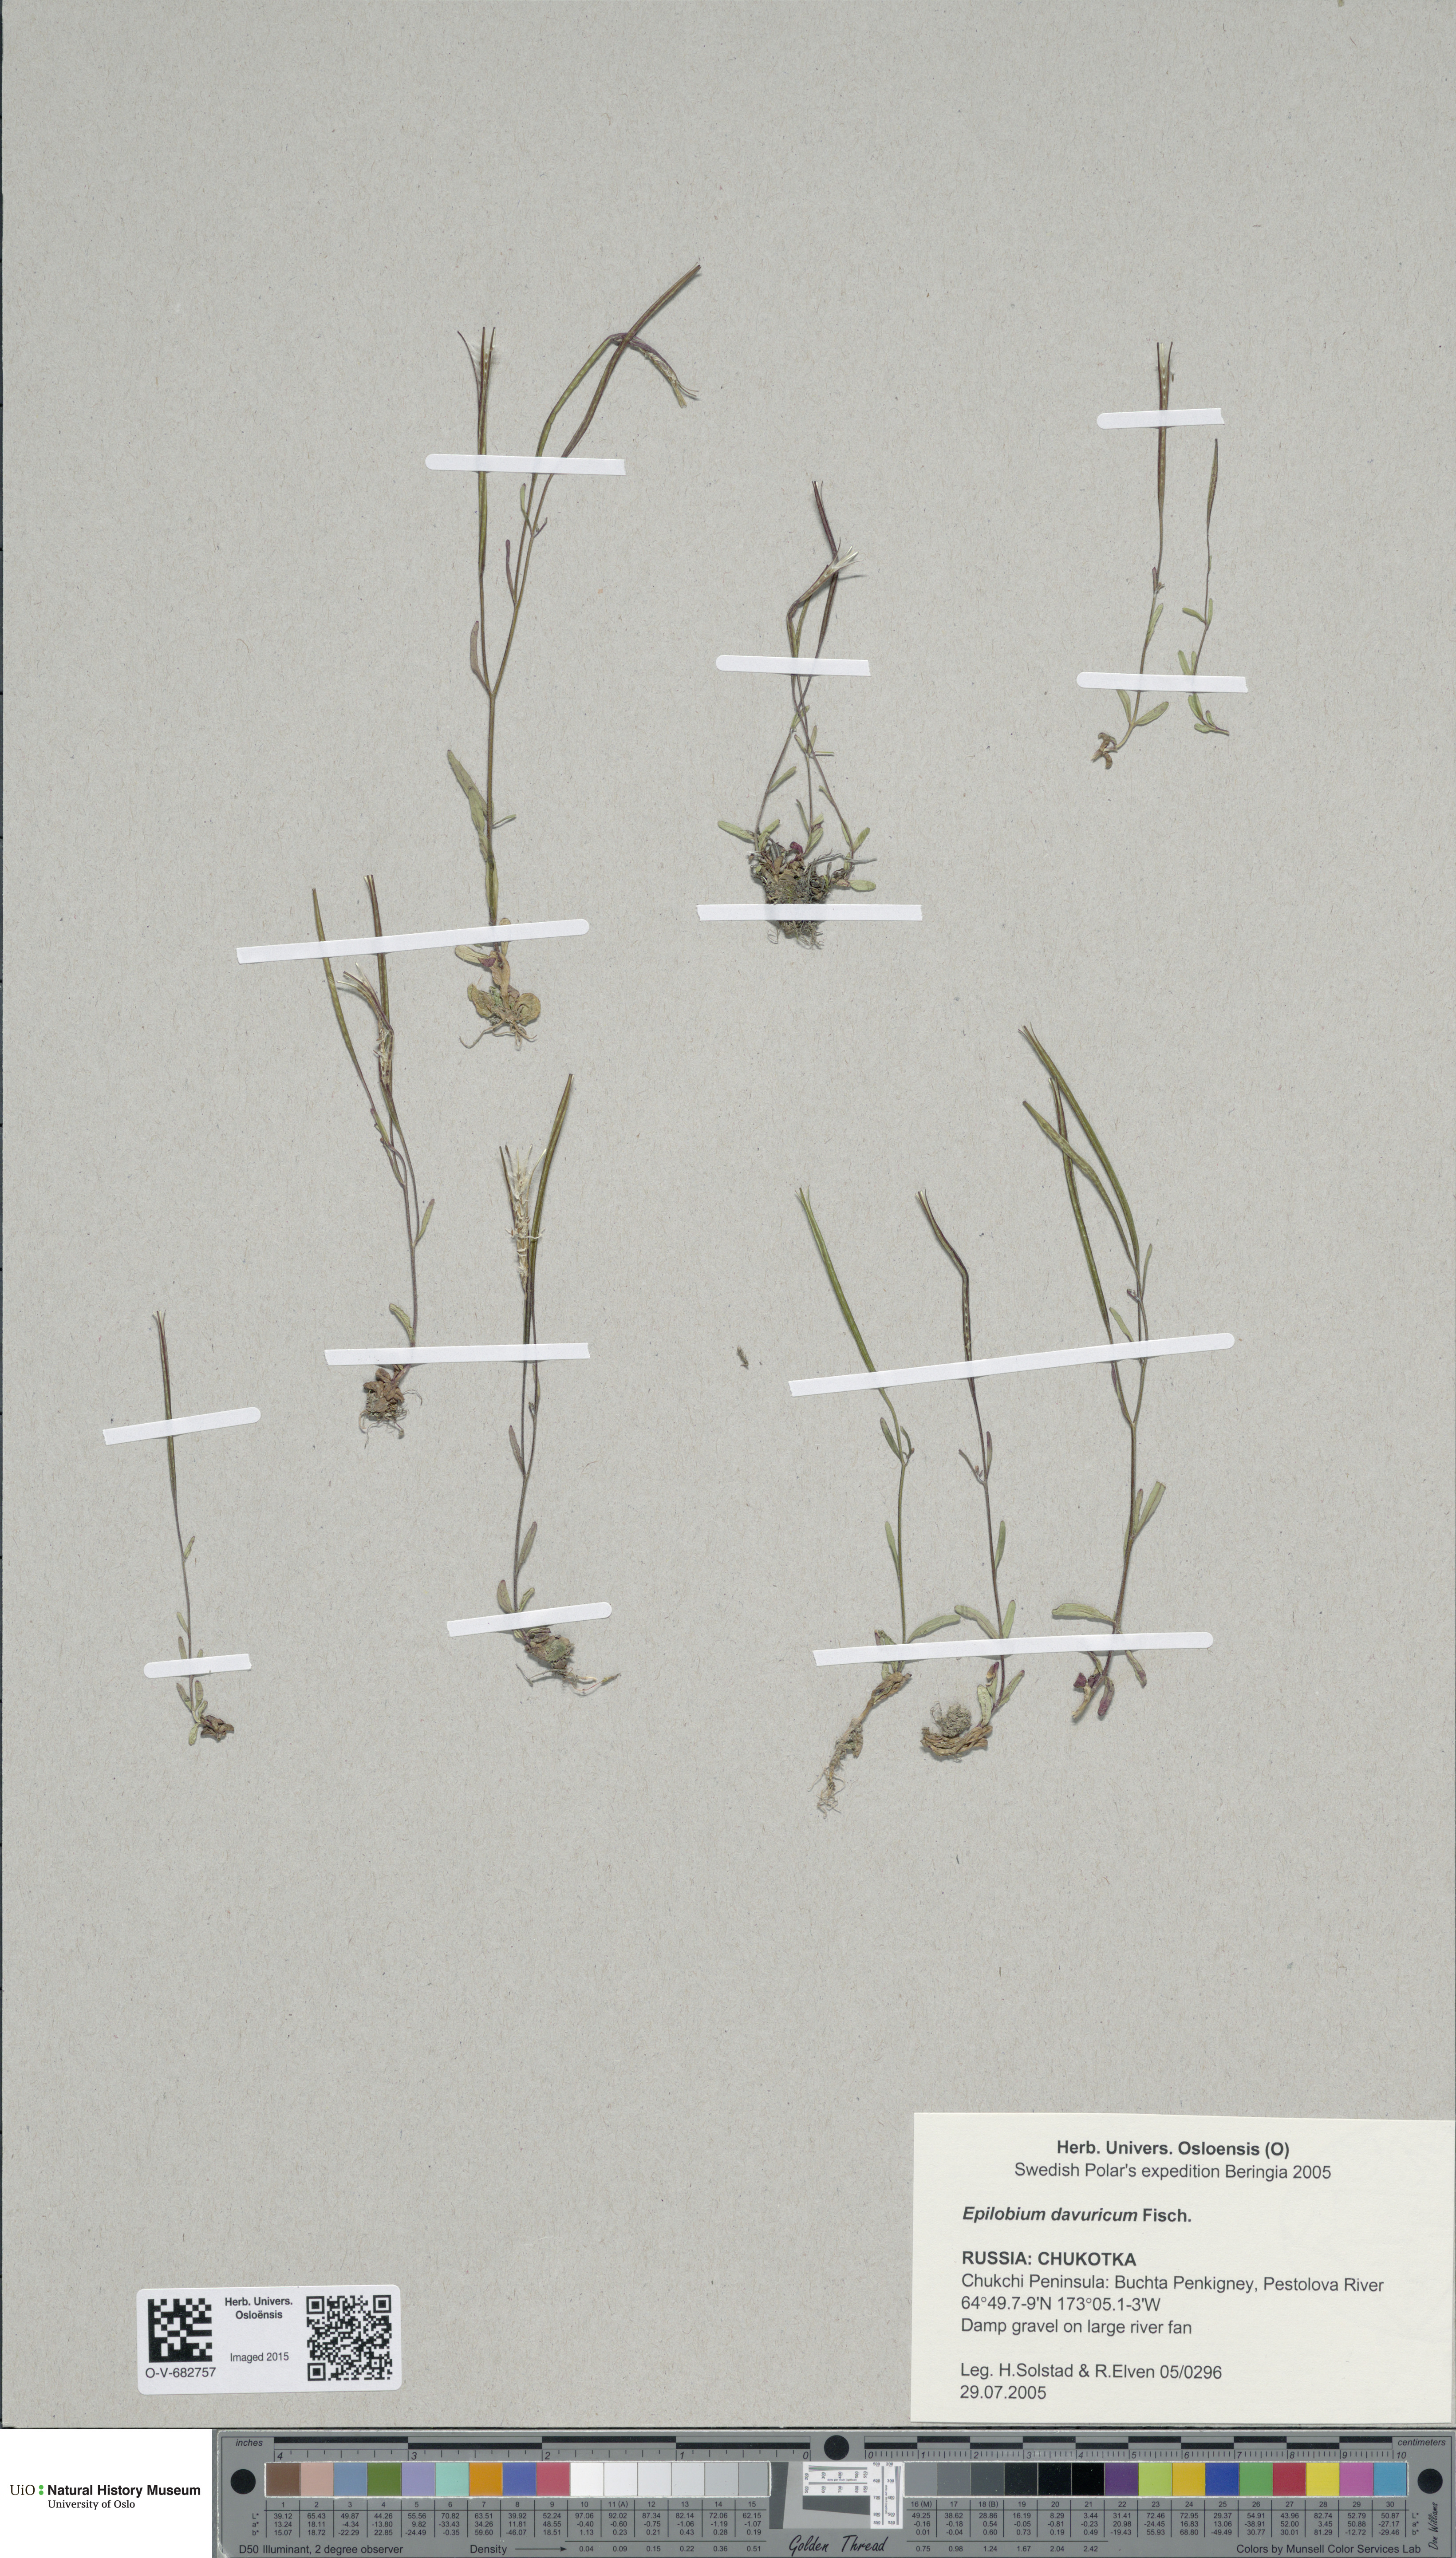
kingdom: Plantae
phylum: Tracheophyta
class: Magnoliopsida
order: Myrtales
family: Onagraceae
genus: Epilobium
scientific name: Epilobium davuricum
